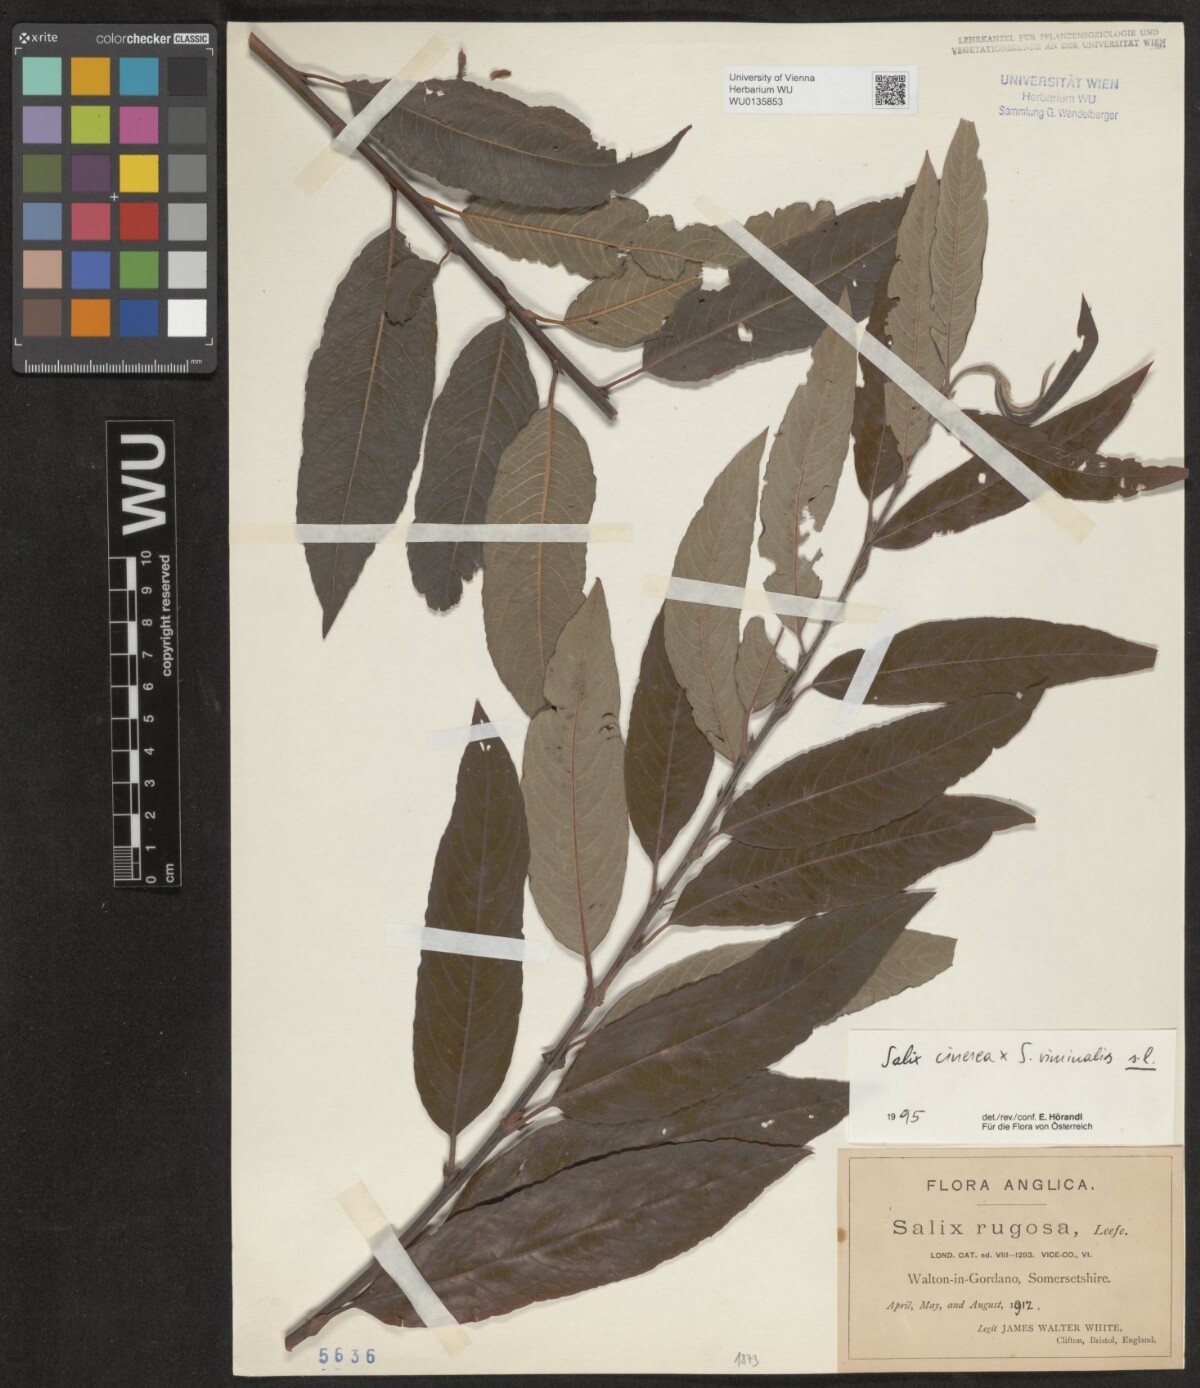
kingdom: Plantae
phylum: Tracheophyta
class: Magnoliopsida
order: Malpighiales
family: Salicaceae
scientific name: Salicaceae
